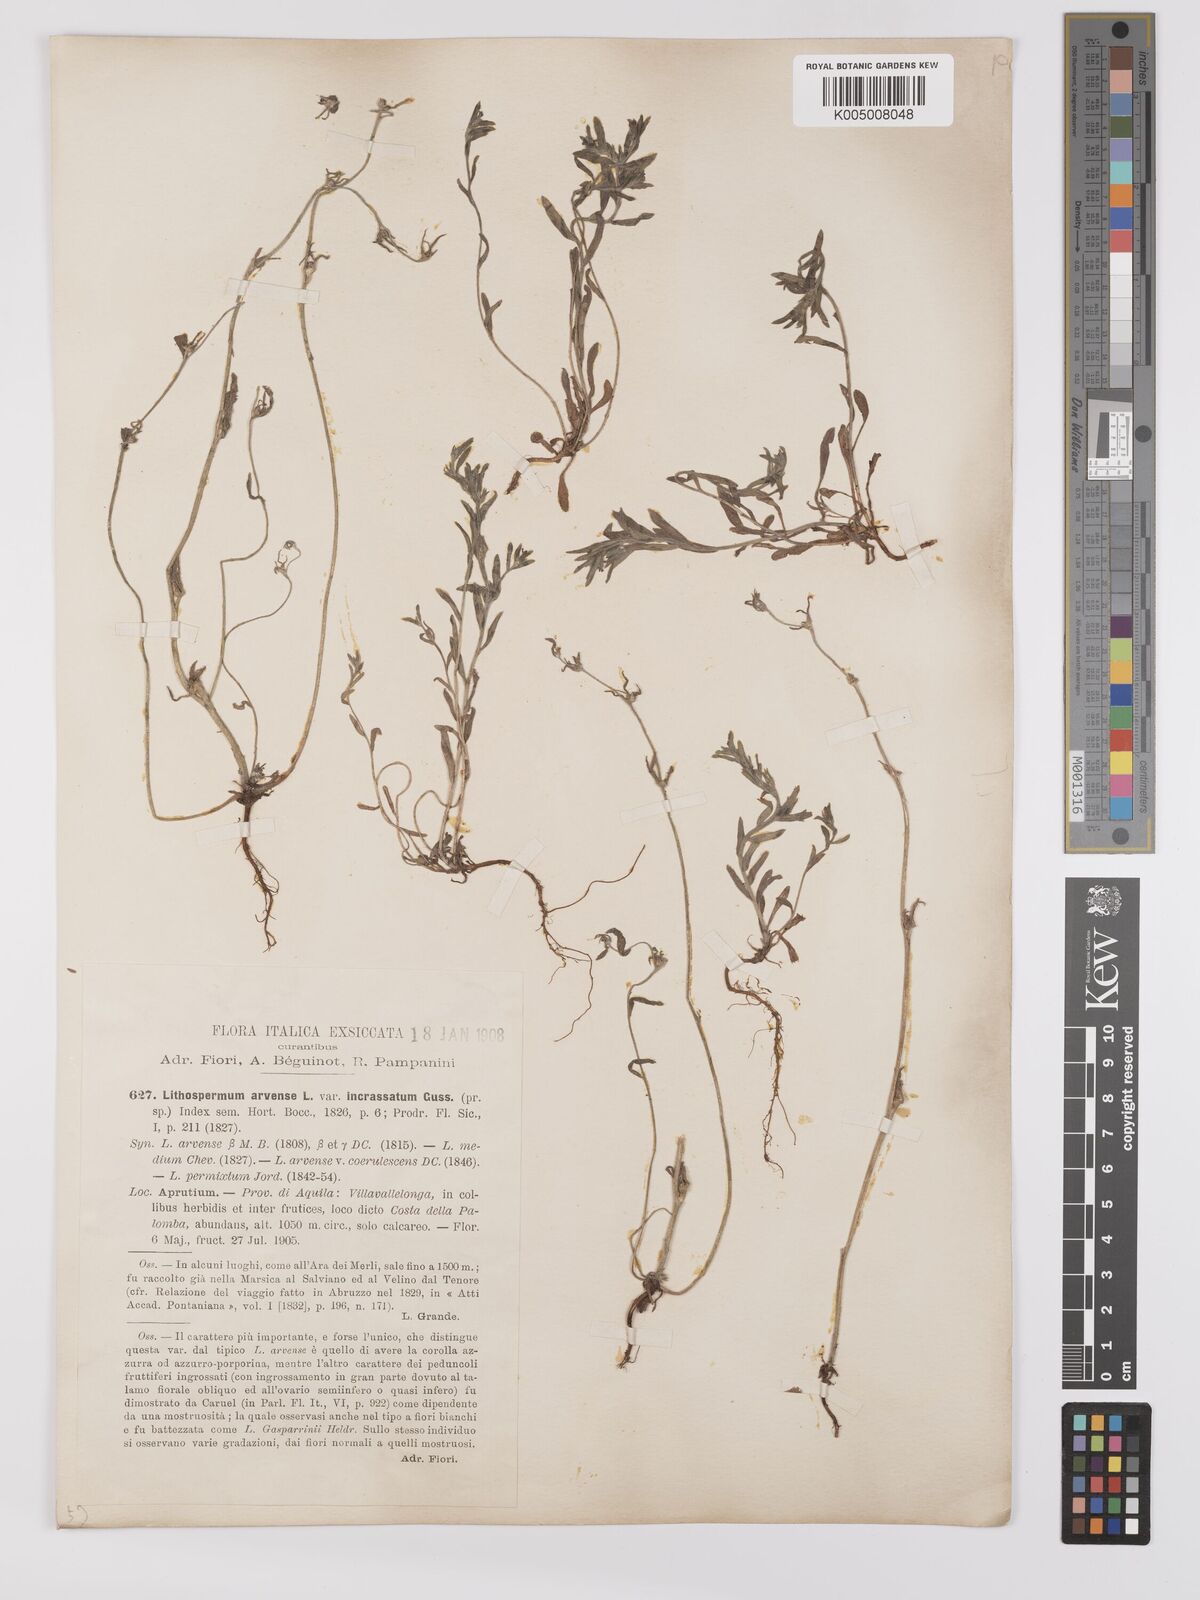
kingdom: Plantae
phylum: Tracheophyta
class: Magnoliopsida
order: Boraginales
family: Boraginaceae
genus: Buglossoides
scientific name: Buglossoides incrassata
